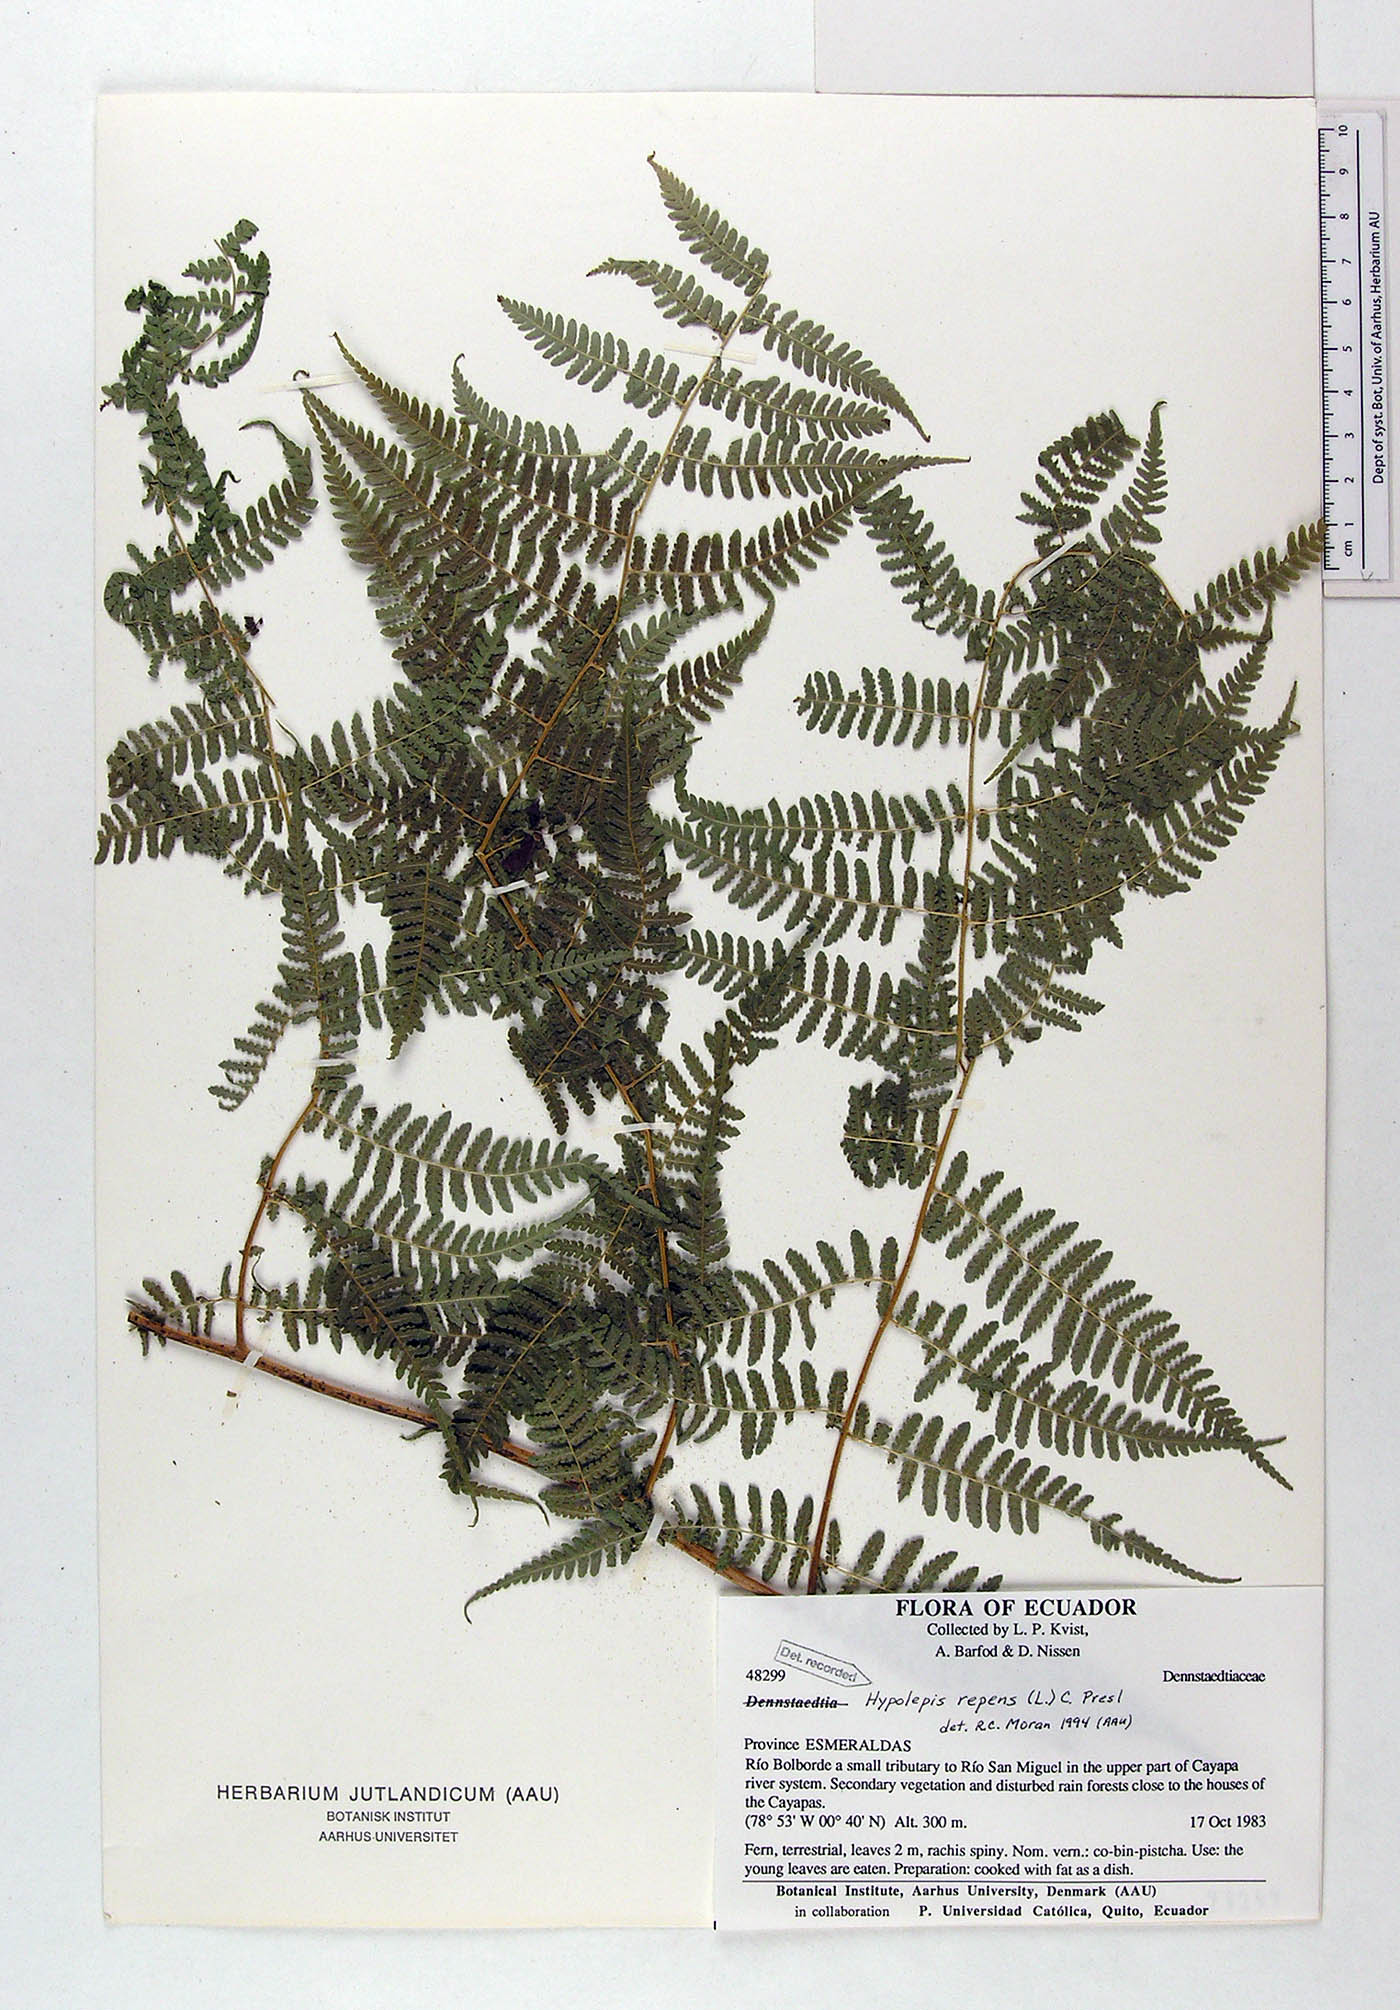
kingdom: Plantae
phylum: Tracheophyta
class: Polypodiopsida
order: Polypodiales
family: Dennstaedtiaceae
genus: Hypolepis
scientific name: Hypolepis repens
